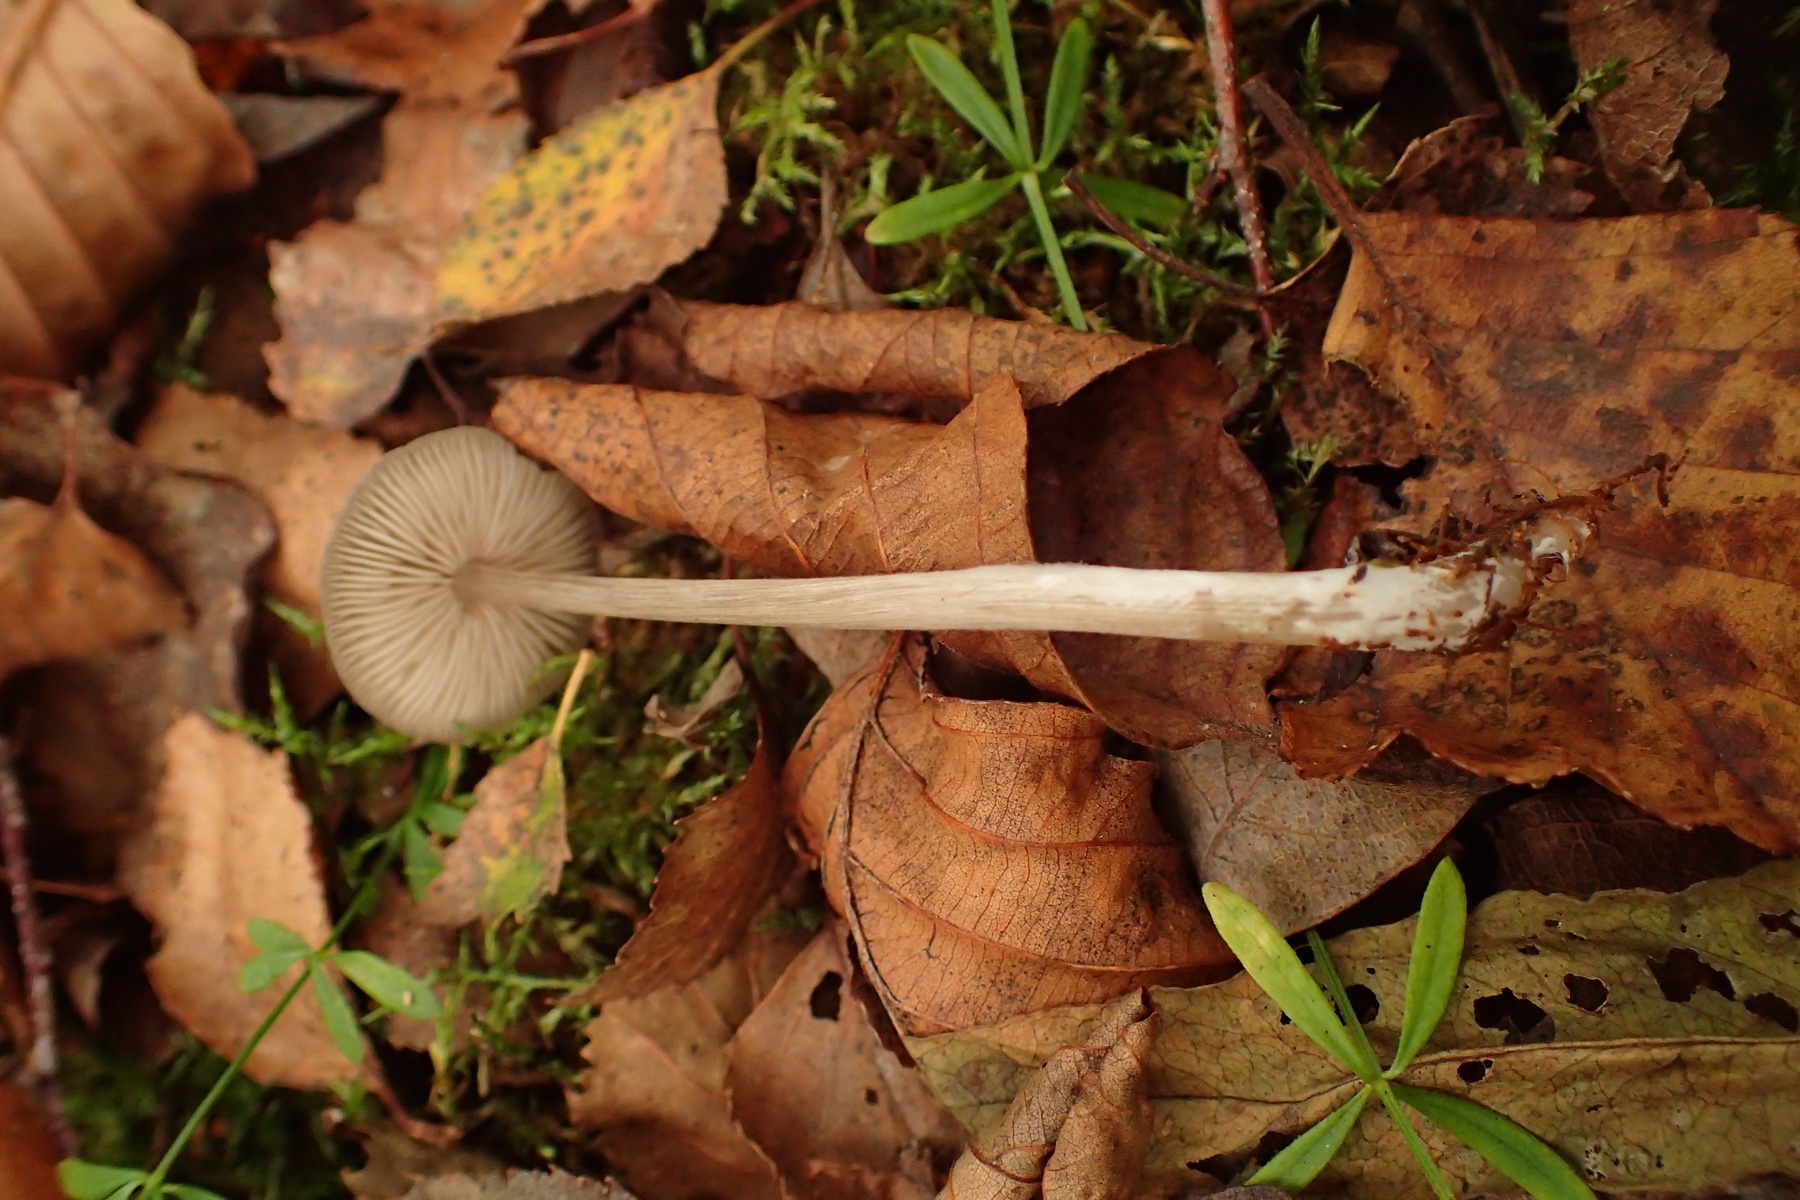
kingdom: Fungi
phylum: Basidiomycota
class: Agaricomycetes
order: Agaricales
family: Entolomataceae
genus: Entoloma
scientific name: Entoloma minutum
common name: liden rødblad
